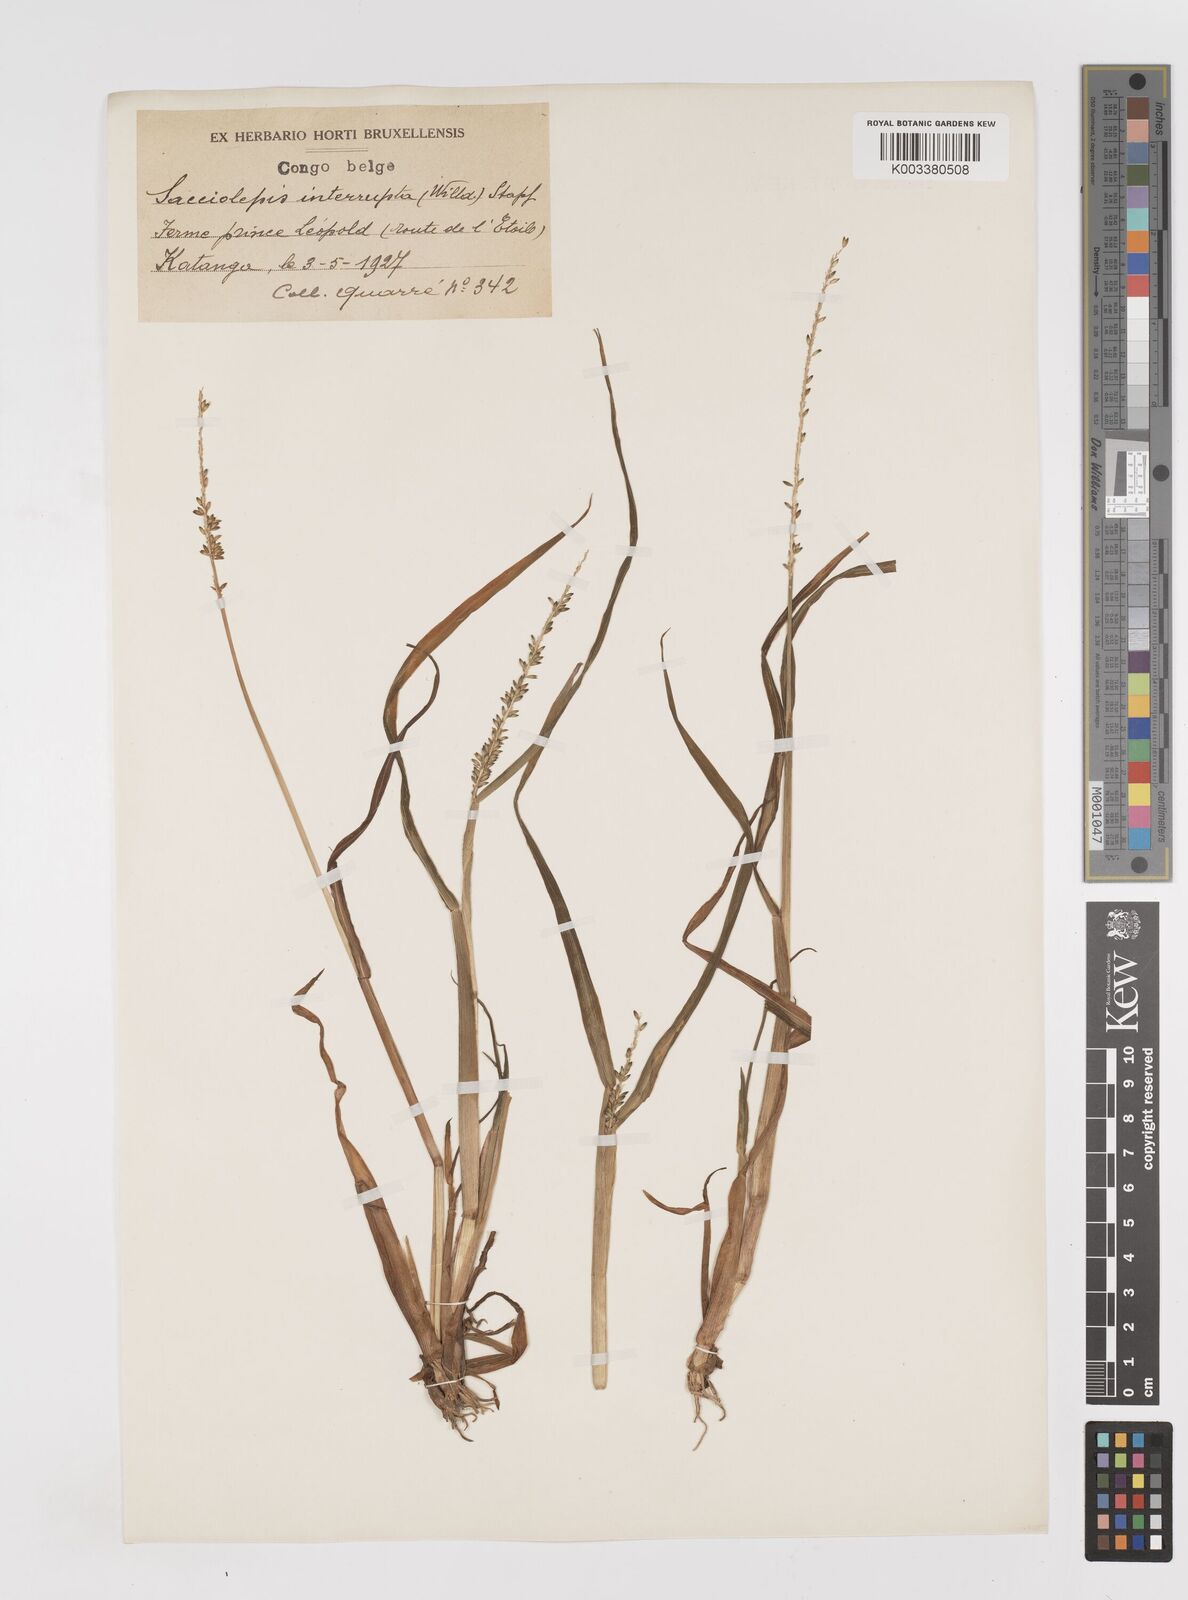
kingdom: Plantae
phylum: Tracheophyta
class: Liliopsida
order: Poales
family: Poaceae
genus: Sacciolepis
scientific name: Sacciolepis africana
